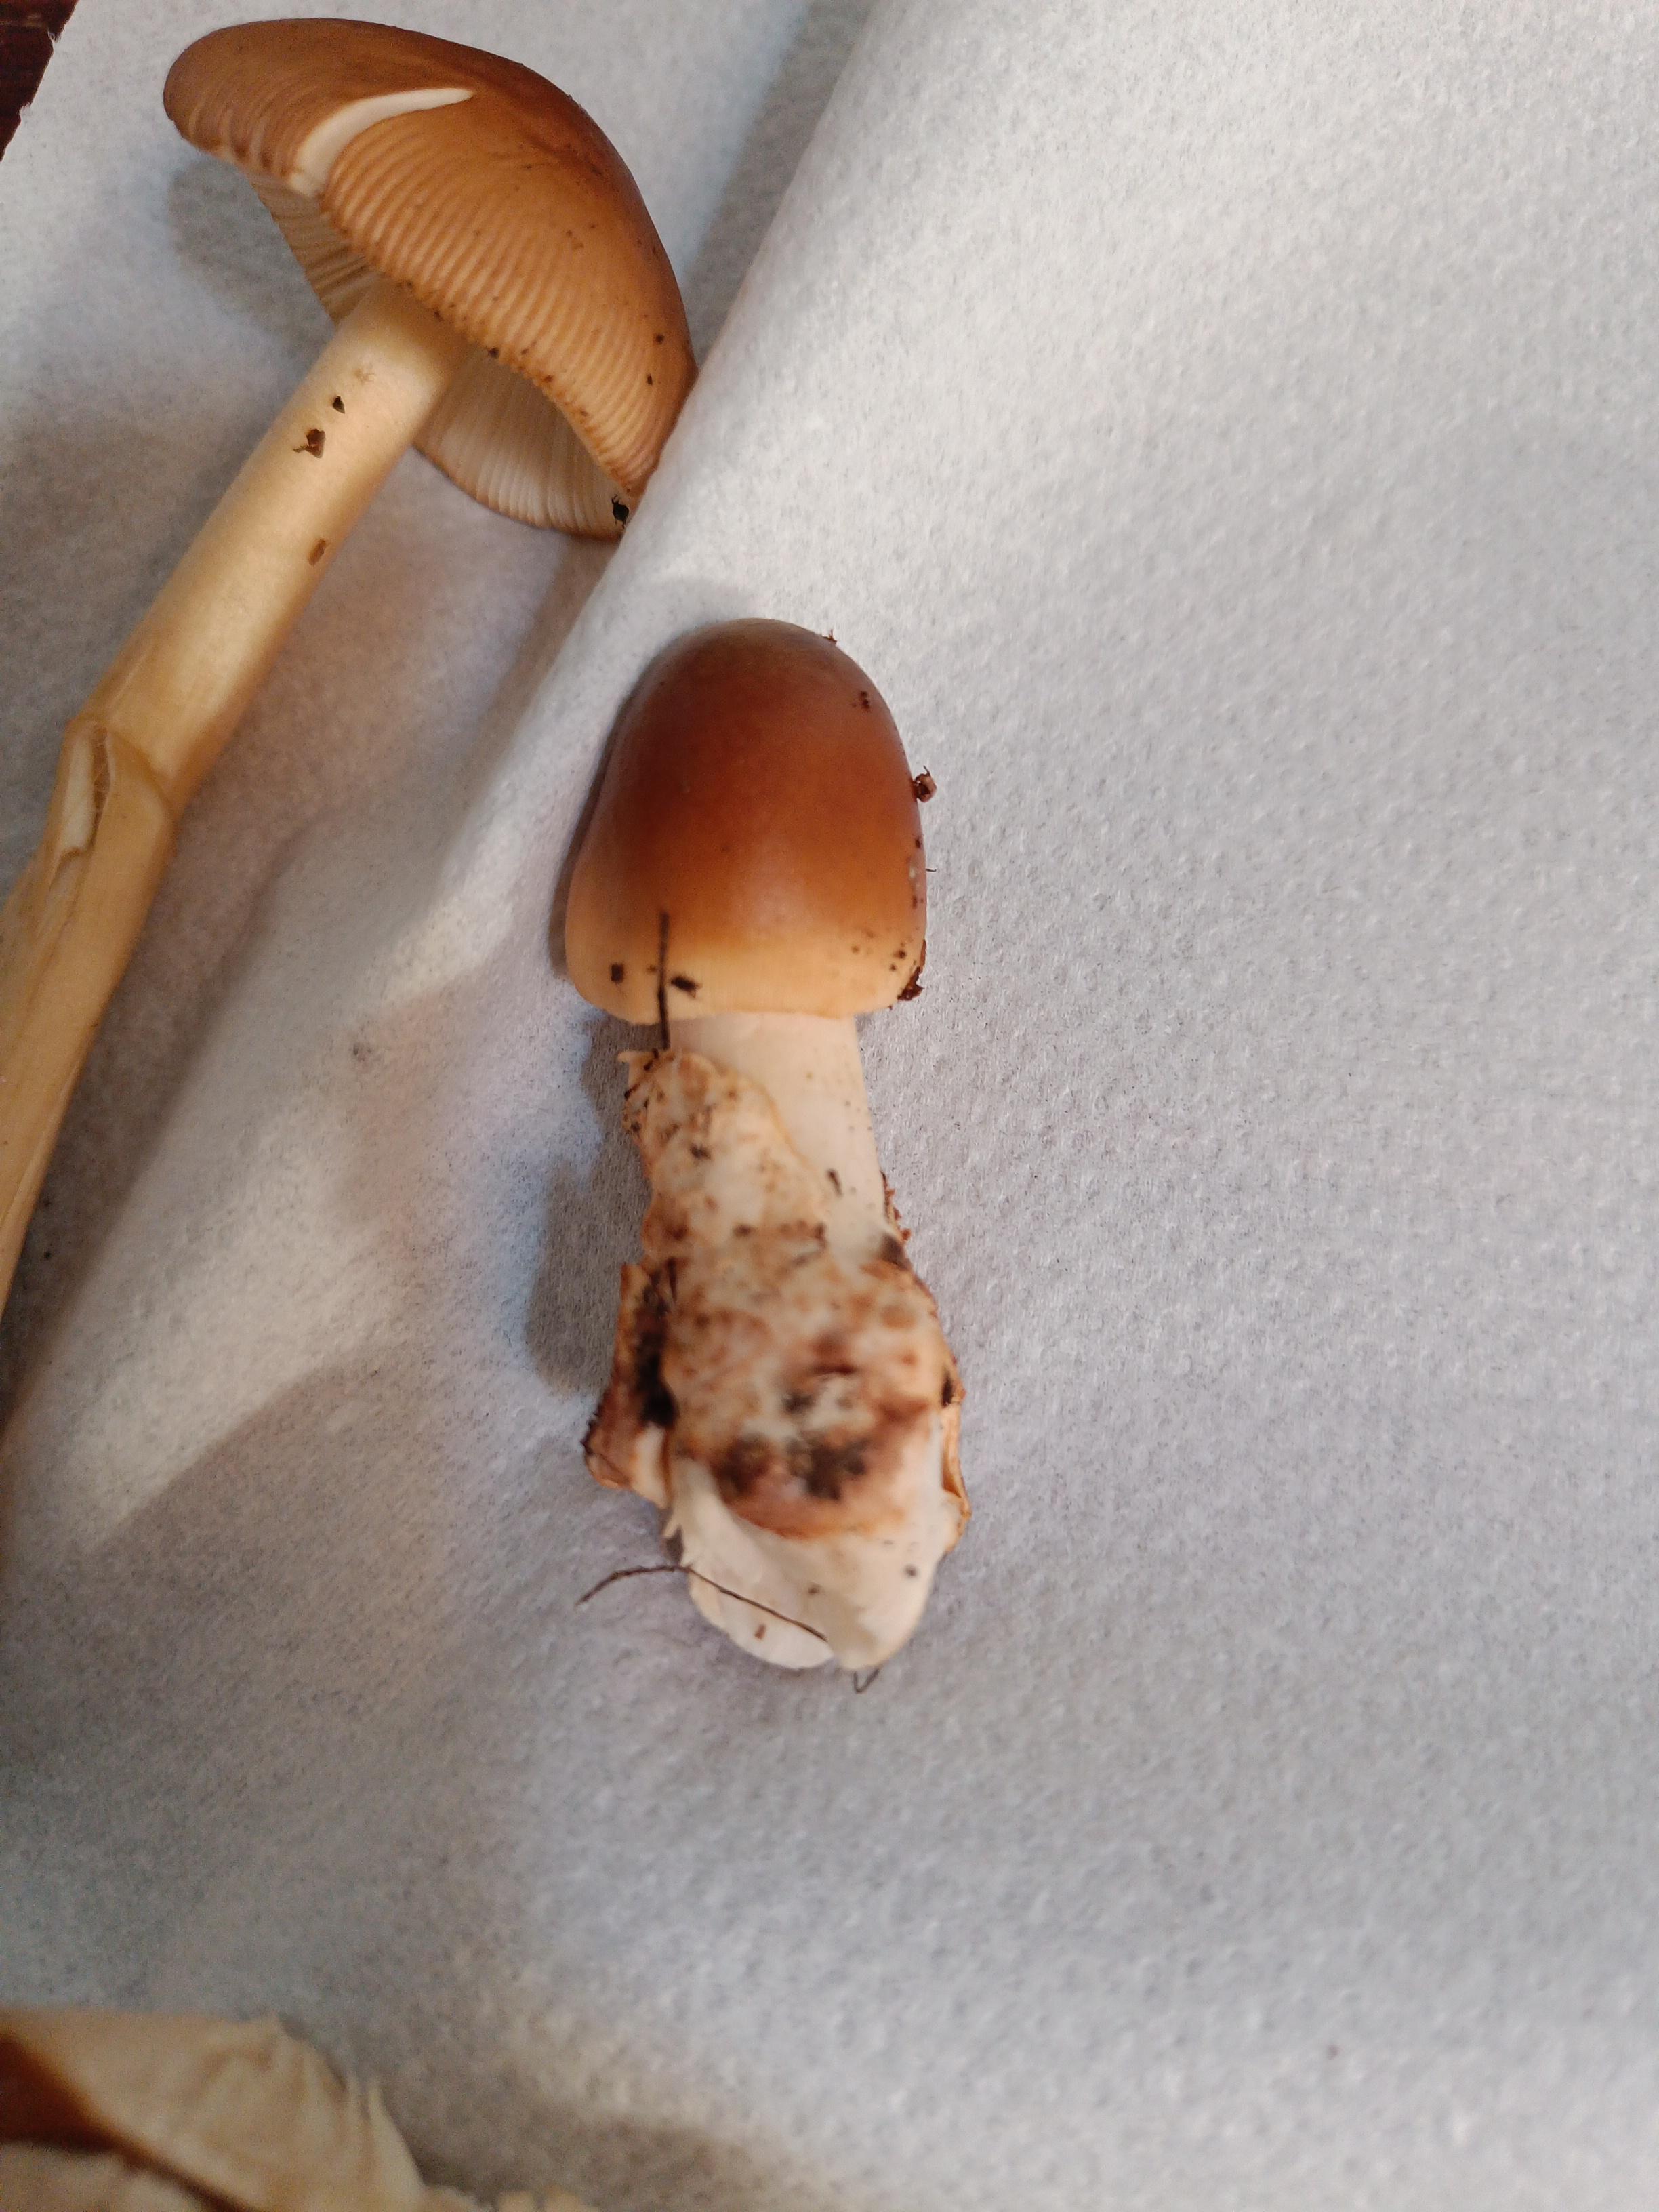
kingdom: Fungi
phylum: Basidiomycota
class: Agaricomycetes
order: Agaricales
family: Amanitaceae
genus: Amanita
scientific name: Amanita fulva
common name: brun kam-fluesvamp
